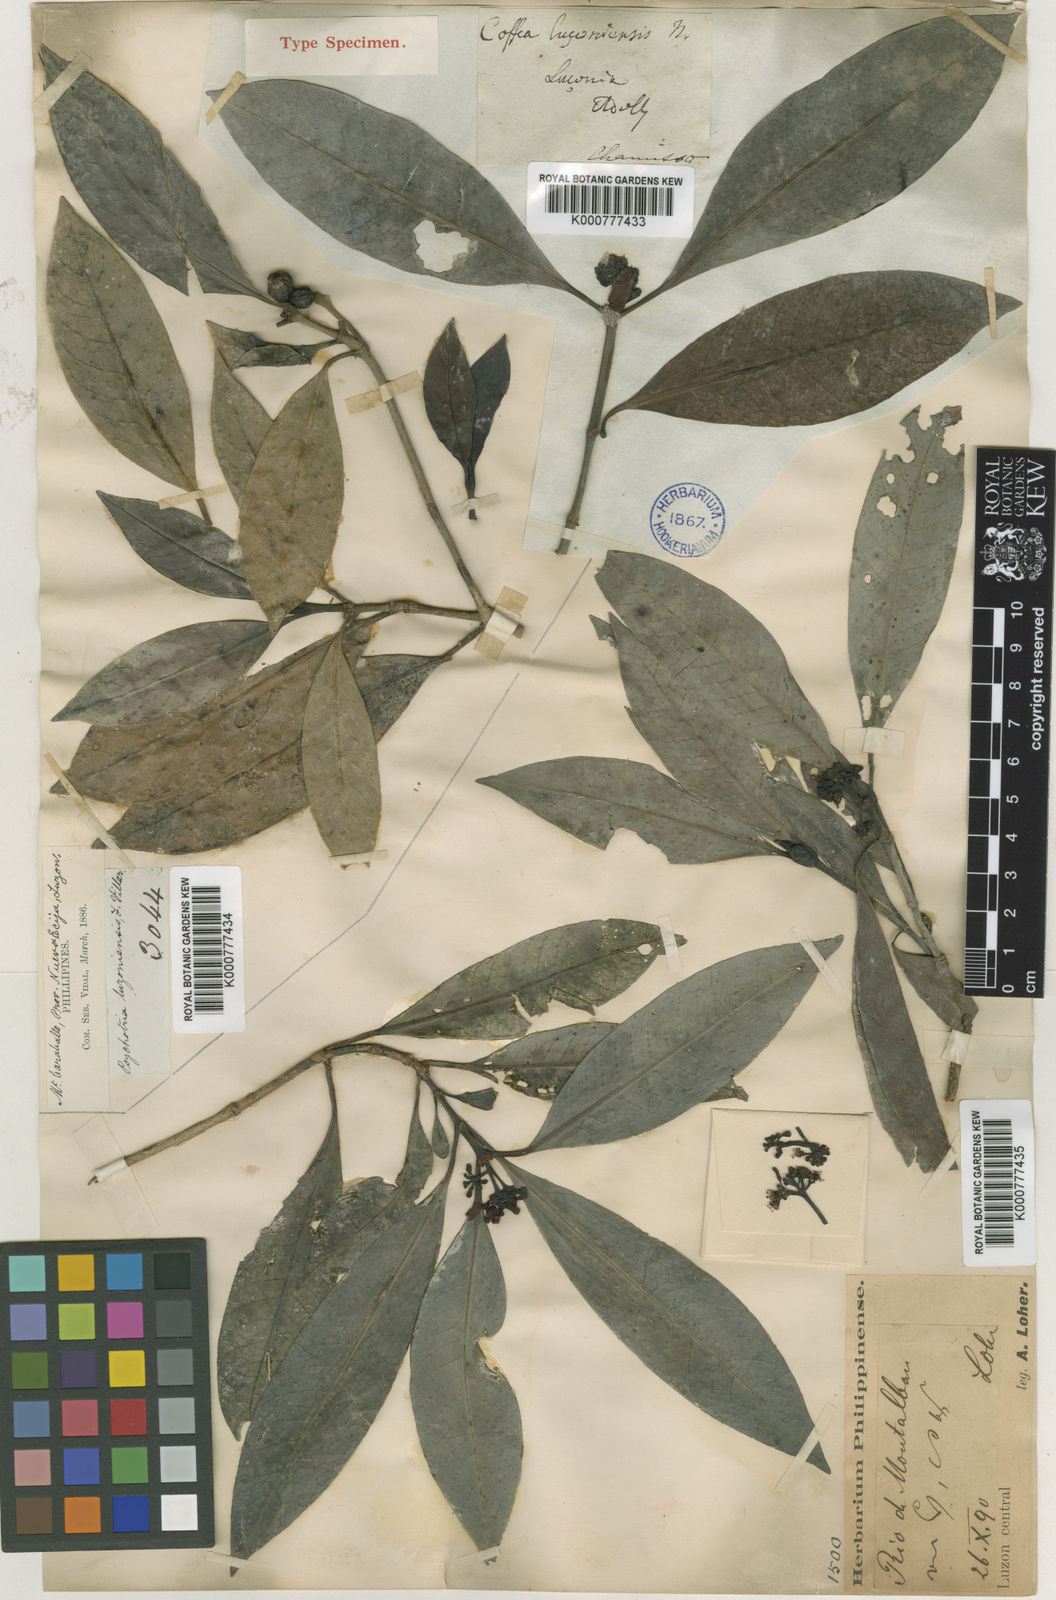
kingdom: Plantae
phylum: Tracheophyta
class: Magnoliopsida
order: Gentianales
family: Rubiaceae
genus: Psychotria
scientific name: Psychotria luzoniensis
